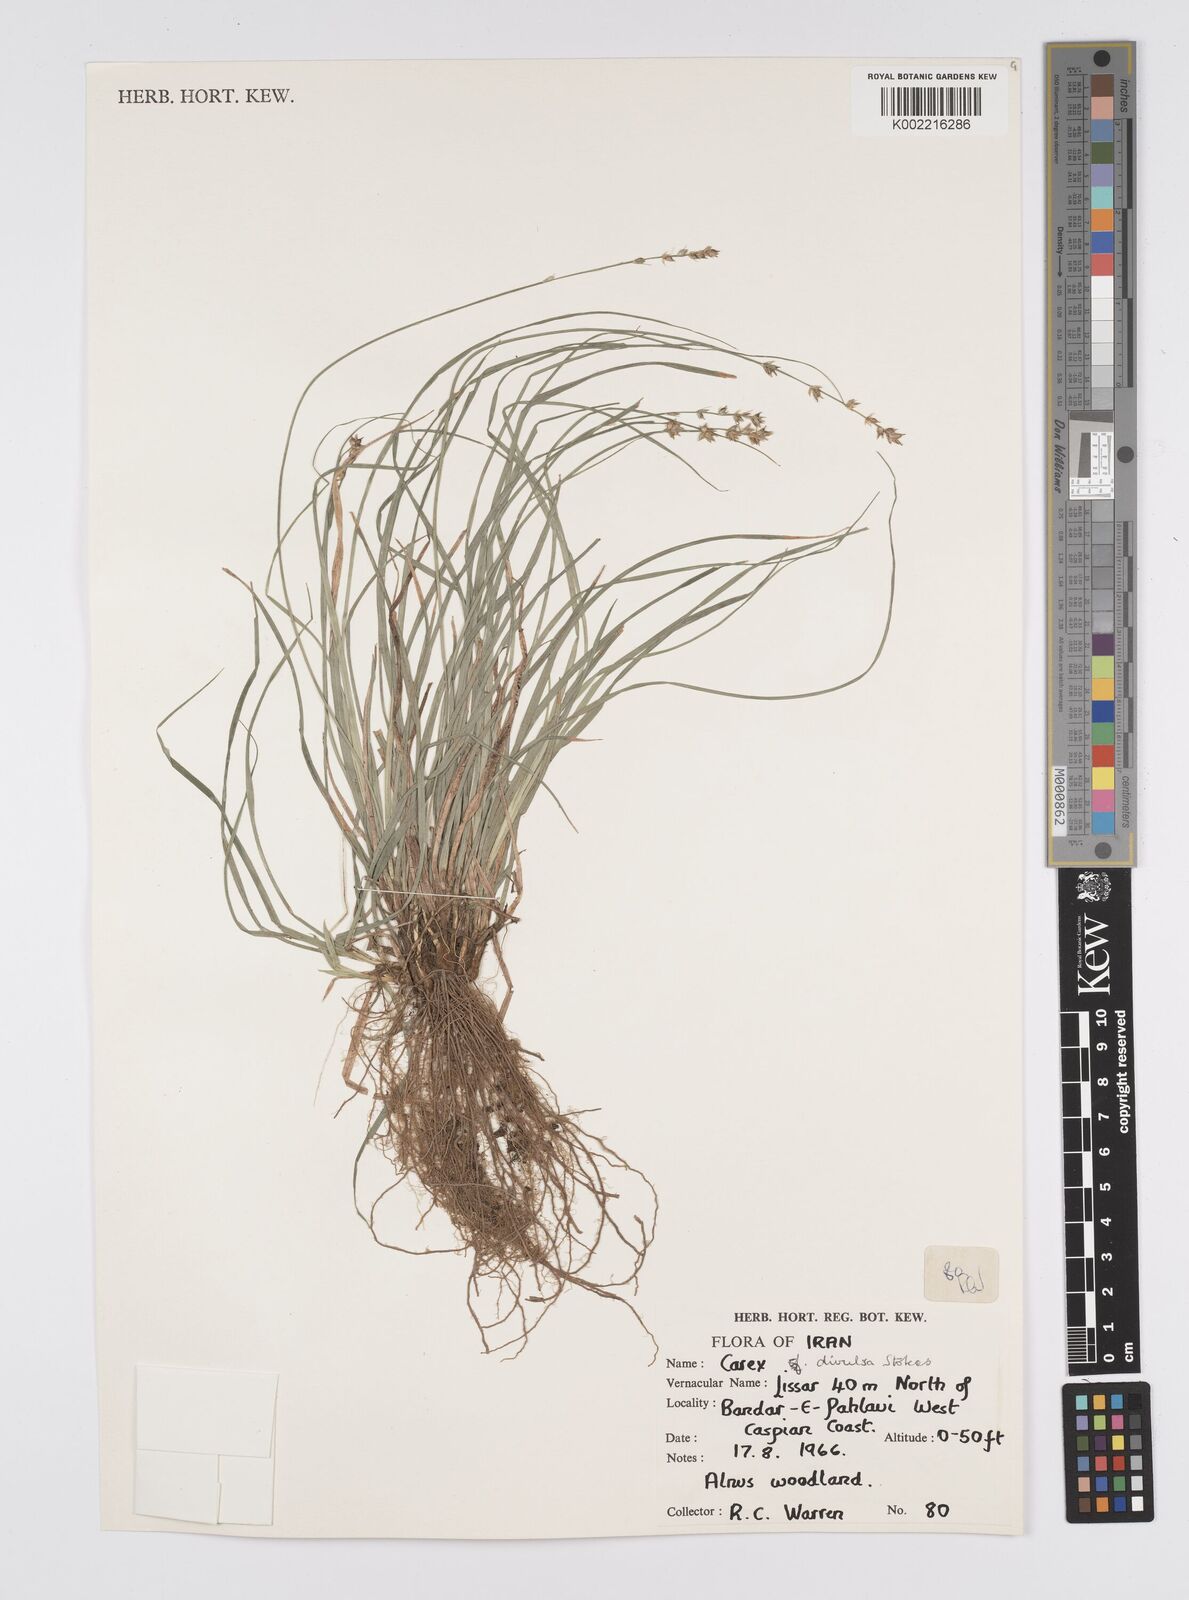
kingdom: Plantae
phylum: Tracheophyta
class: Liliopsida
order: Poales
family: Cyperaceae
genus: Carex
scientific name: Carex divulsa
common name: Grassland sedge
